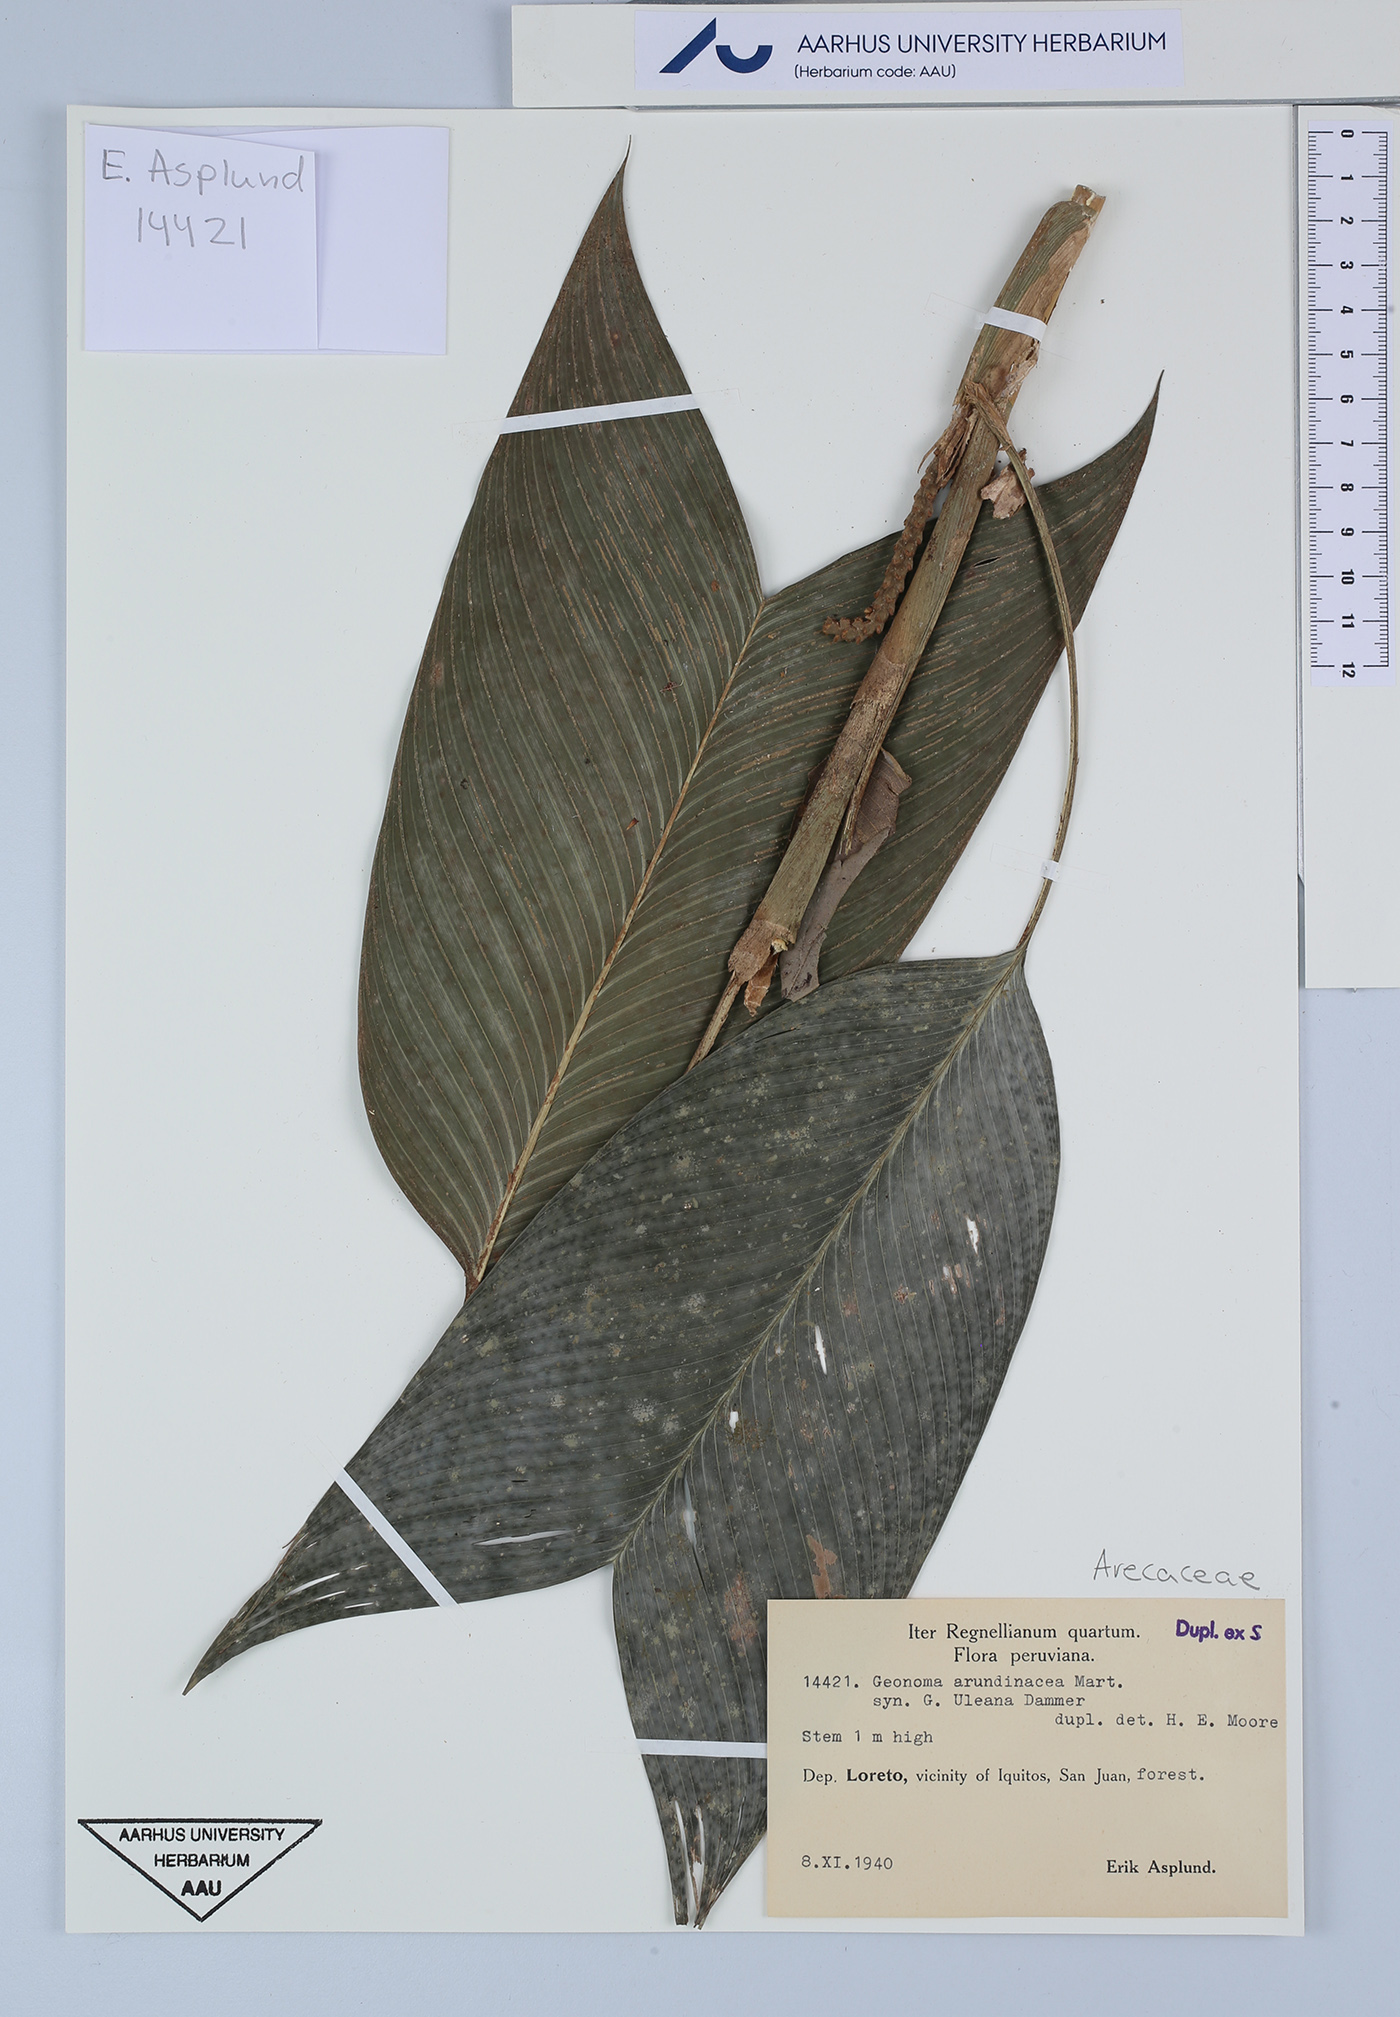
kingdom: Plantae
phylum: Tracheophyta
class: Liliopsida
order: Arecales
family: Arecaceae
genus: Geonoma
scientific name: Geonoma stricta
